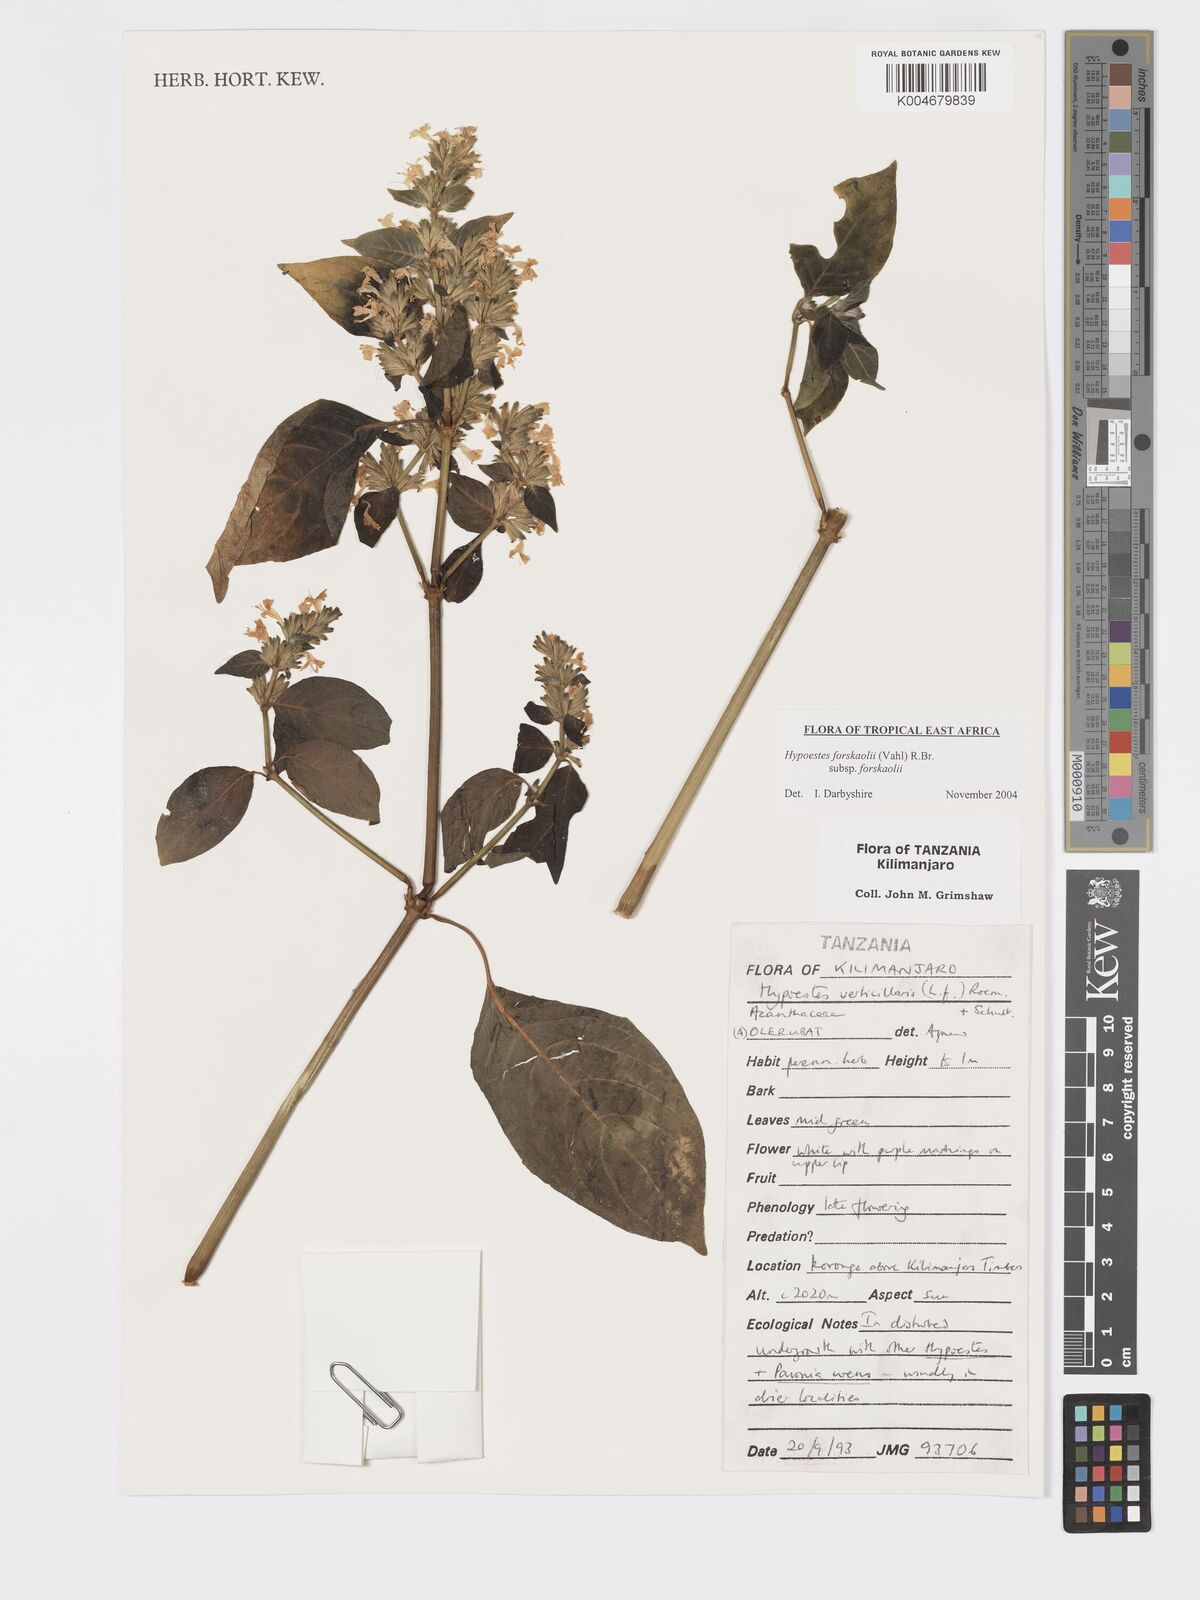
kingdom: Plantae
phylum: Tracheophyta
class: Magnoliopsida
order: Lamiales
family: Acanthaceae
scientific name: Acanthaceae
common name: Acanthaceae
